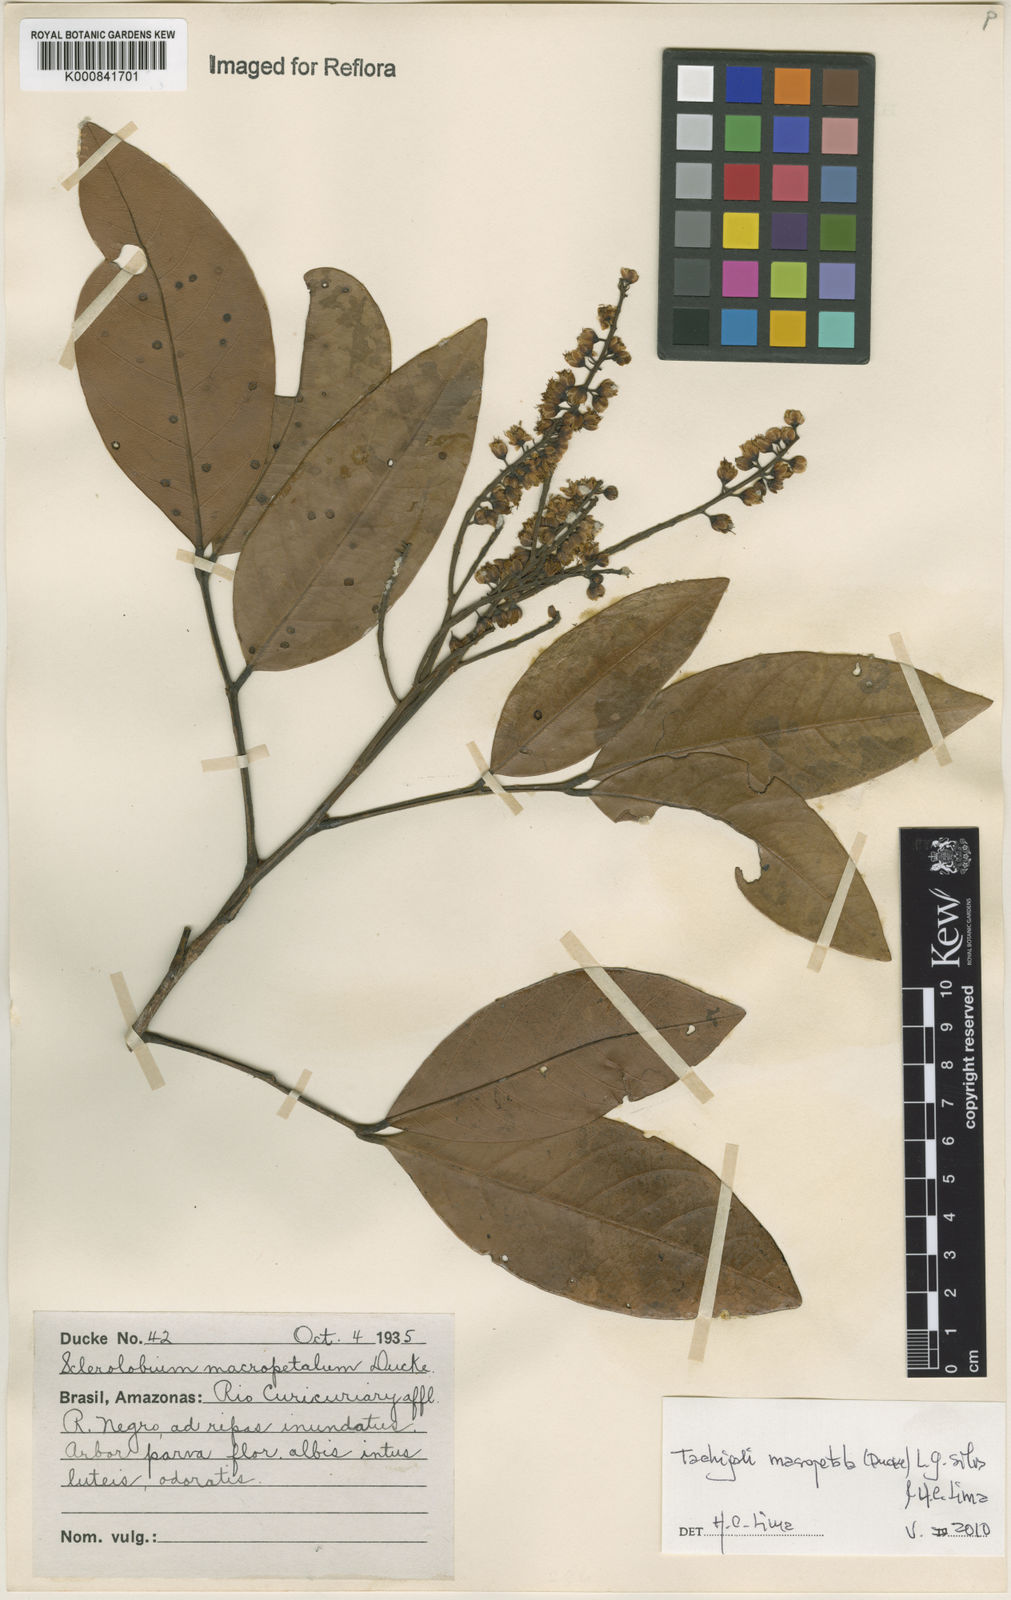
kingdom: Plantae
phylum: Tracheophyta
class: Magnoliopsida
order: Fabales
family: Fabaceae
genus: Tachigali
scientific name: Tachigali macropetala
